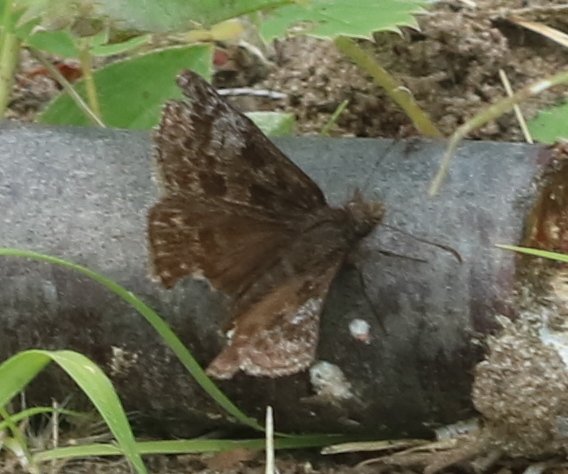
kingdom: Animalia
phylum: Arthropoda
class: Insecta
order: Lepidoptera
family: Hesperiidae
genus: Erynnis
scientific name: Erynnis icelus
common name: Dreamy Duskywing
